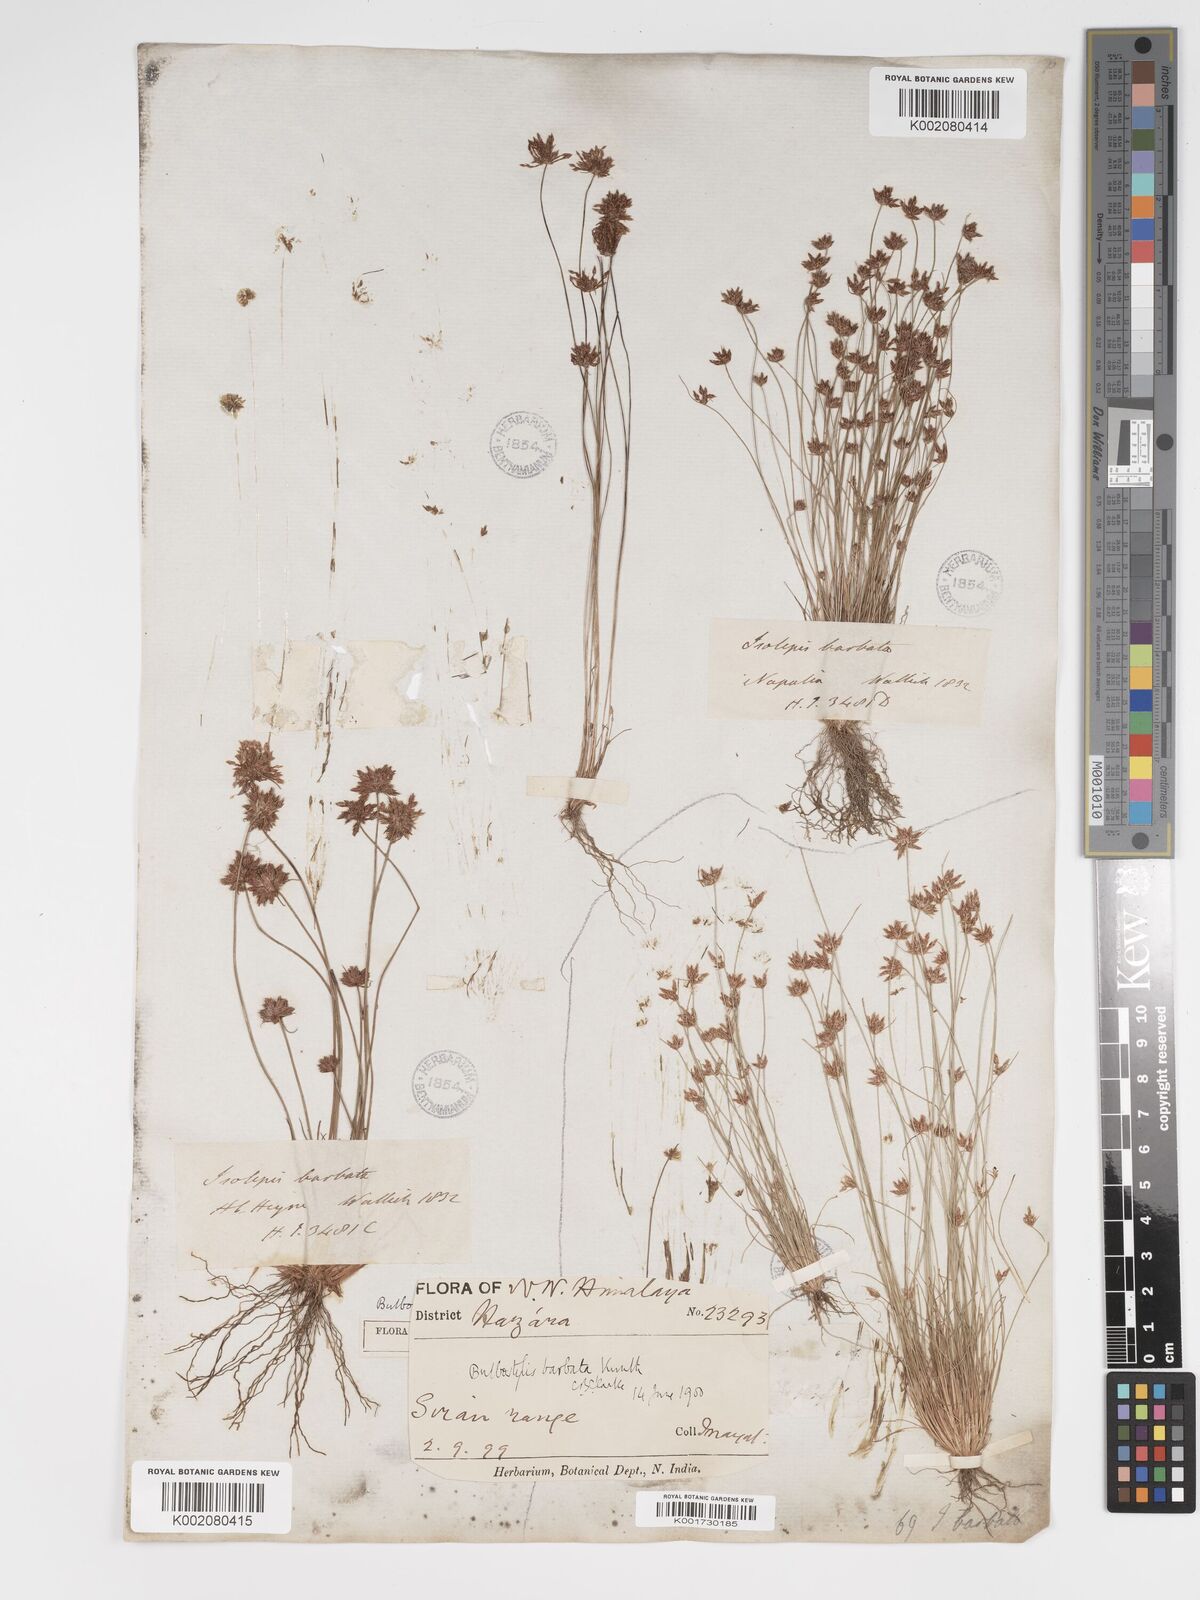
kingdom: Plantae
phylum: Tracheophyta
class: Liliopsida
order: Poales
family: Cyperaceae
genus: Bulbostylis
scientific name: Bulbostylis barbata
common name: Watergrass
